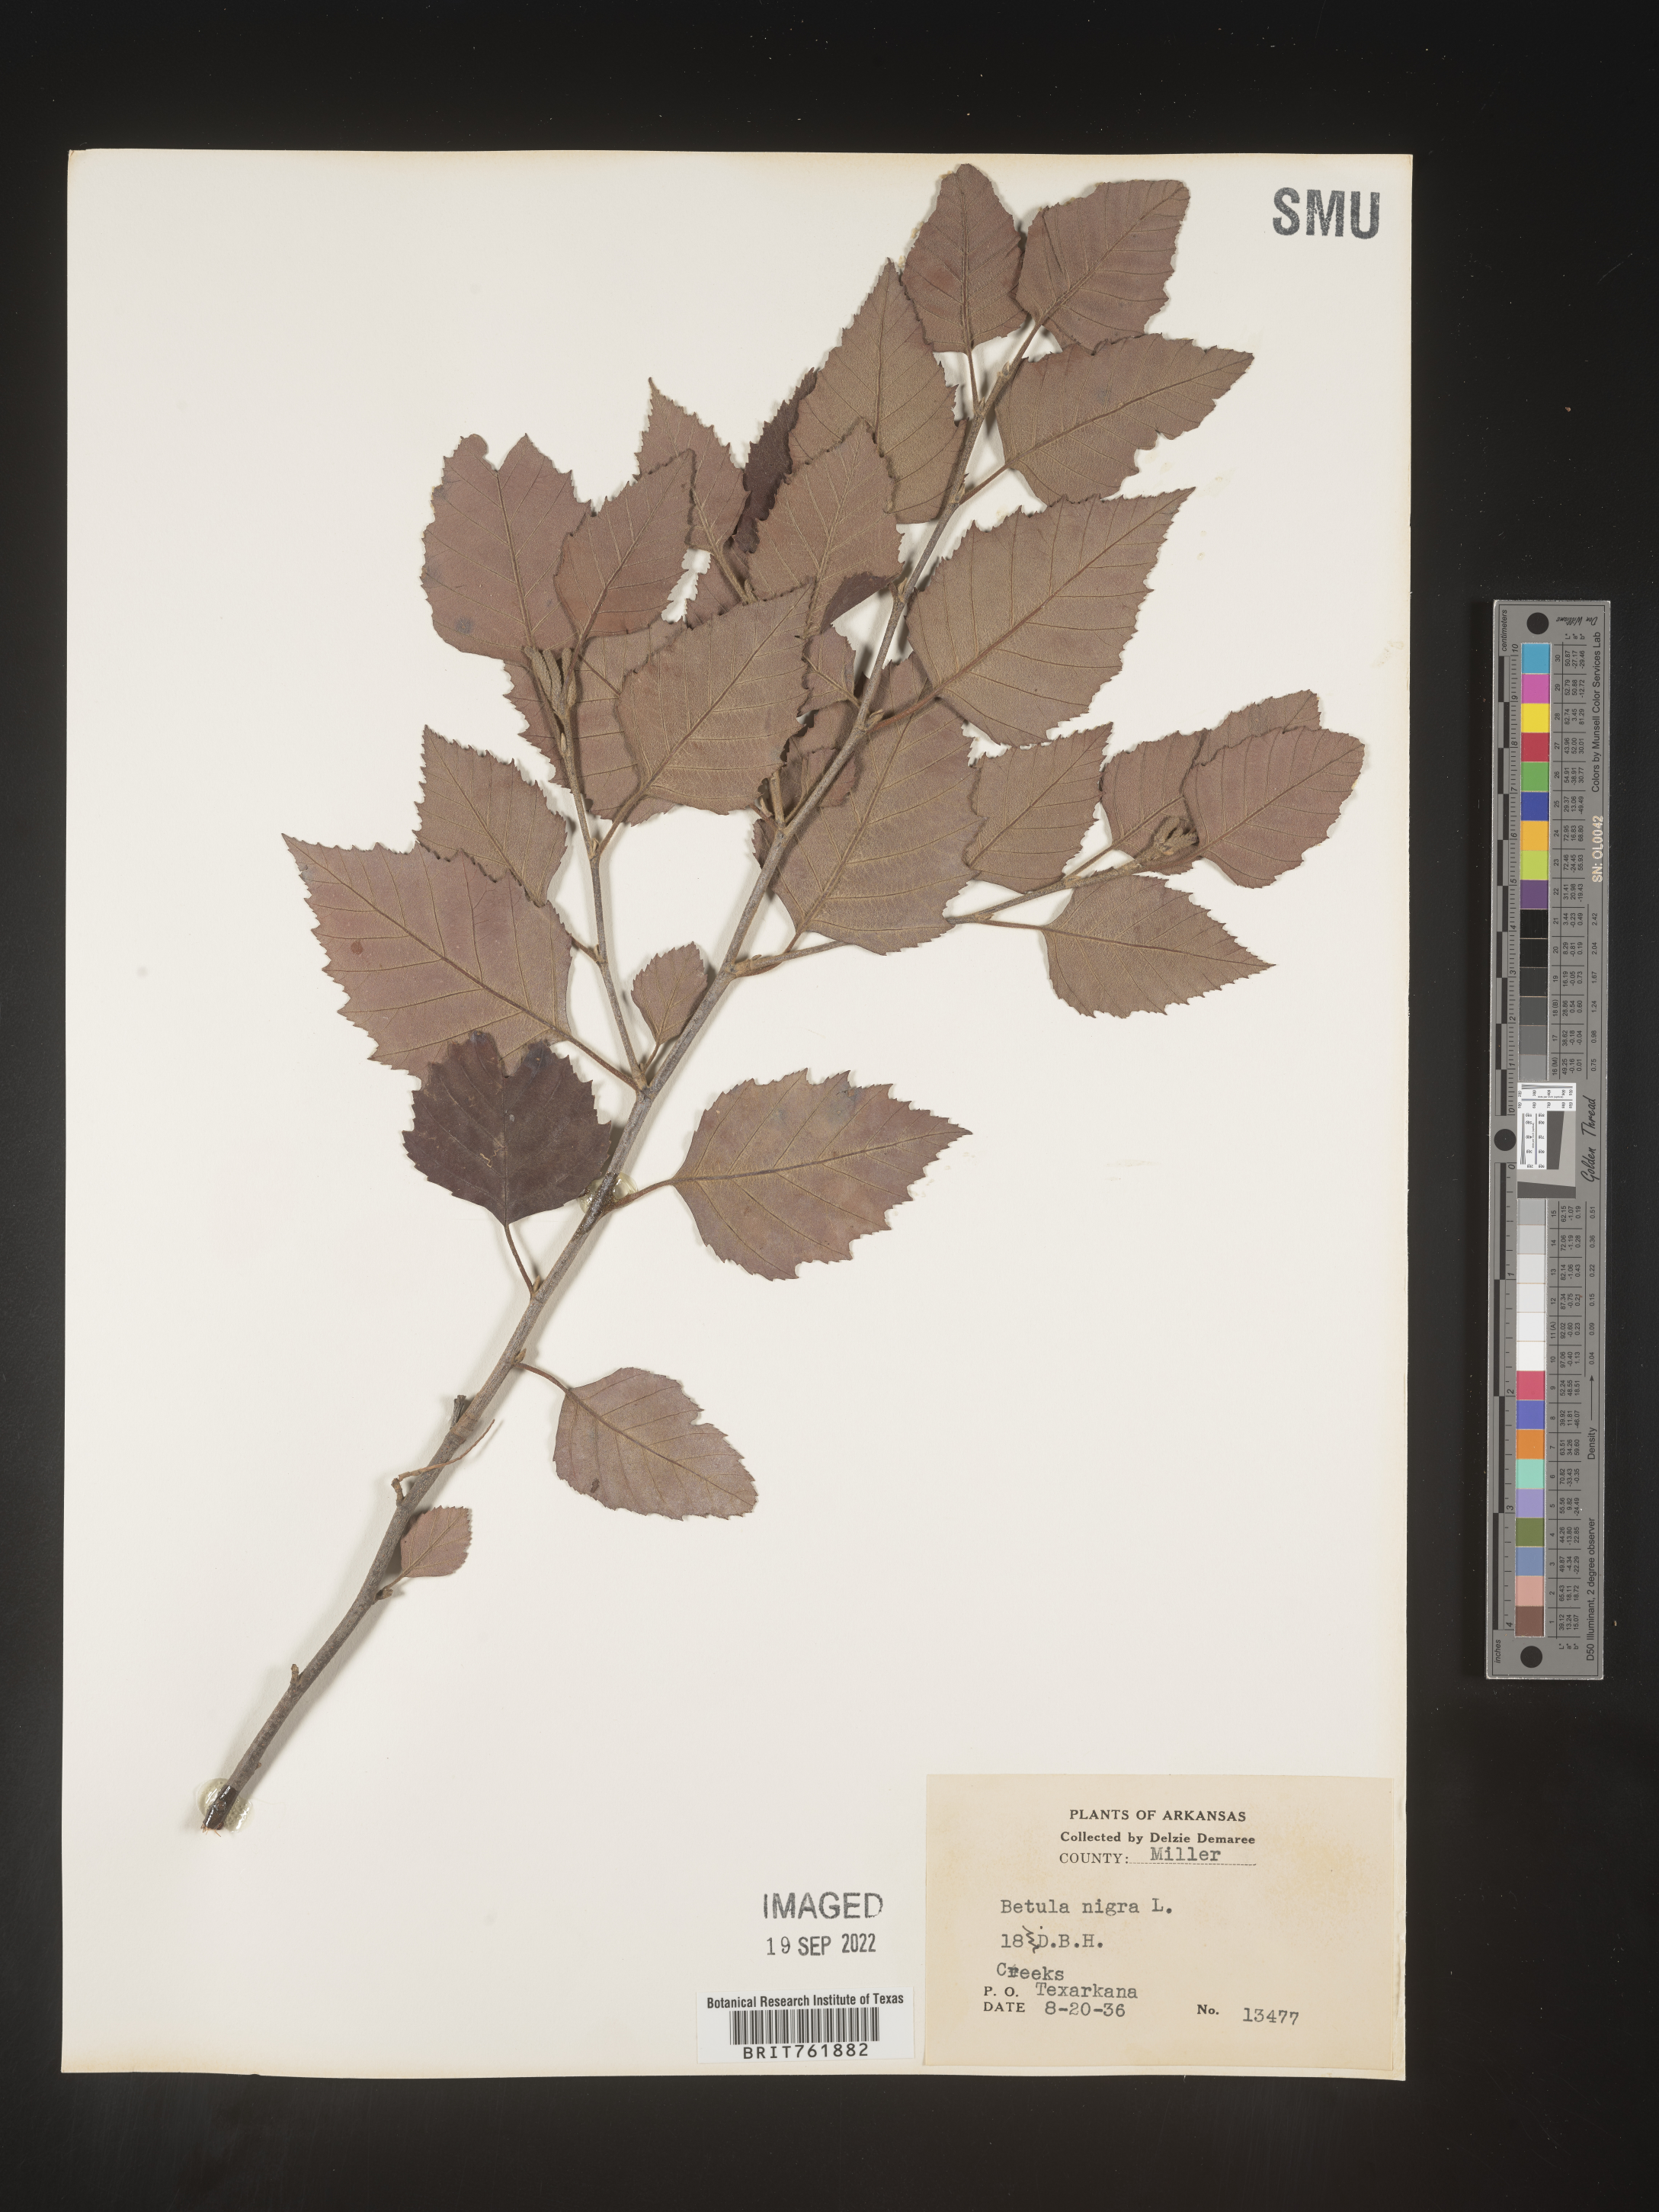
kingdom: Plantae
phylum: Tracheophyta
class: Magnoliopsida
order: Fagales
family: Betulaceae
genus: Betula
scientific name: Betula nigra
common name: Black birch
